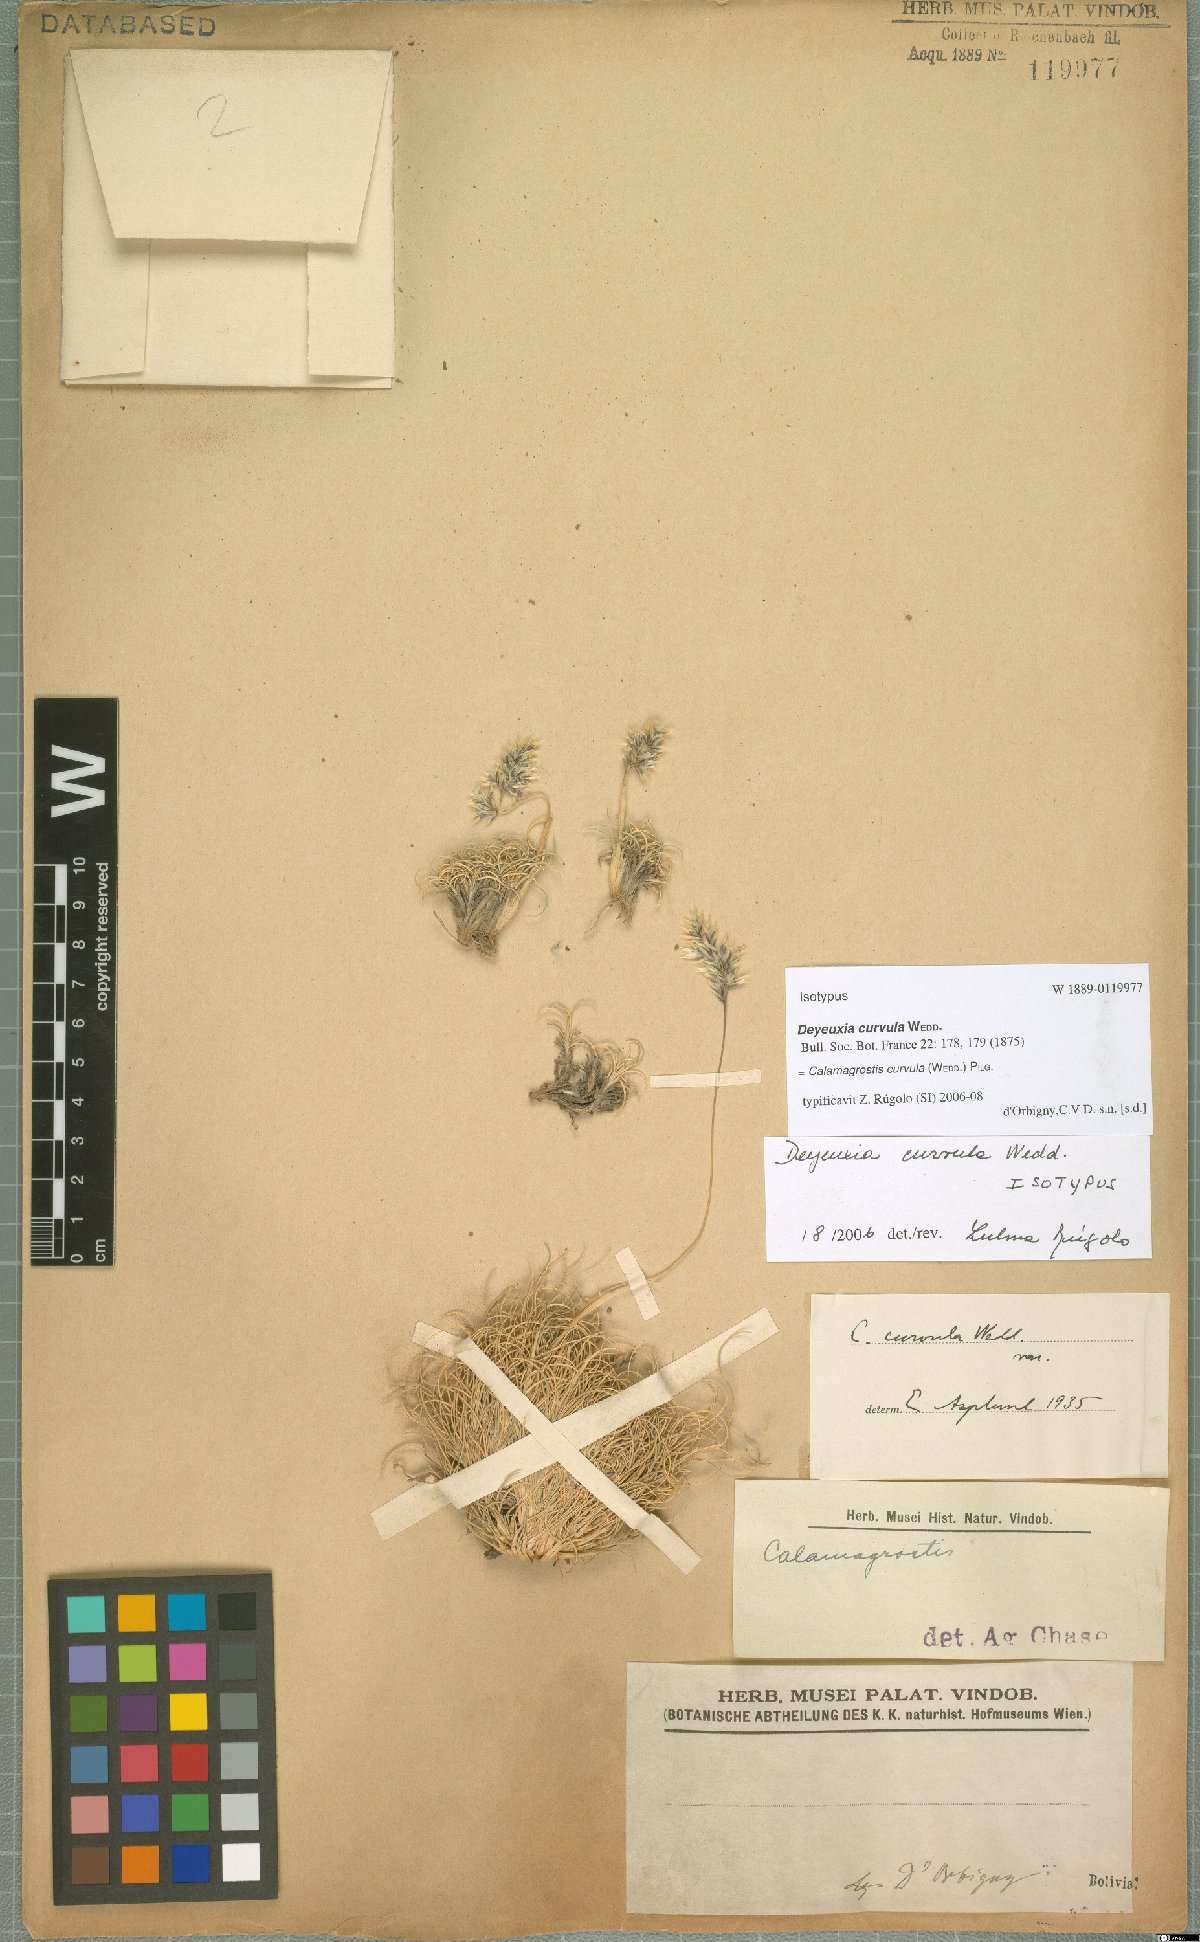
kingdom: Plantae
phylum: Tracheophyta
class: Liliopsida
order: Poales
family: Poaceae
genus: Cinnagrostis
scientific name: Cinnagrostis curvula
